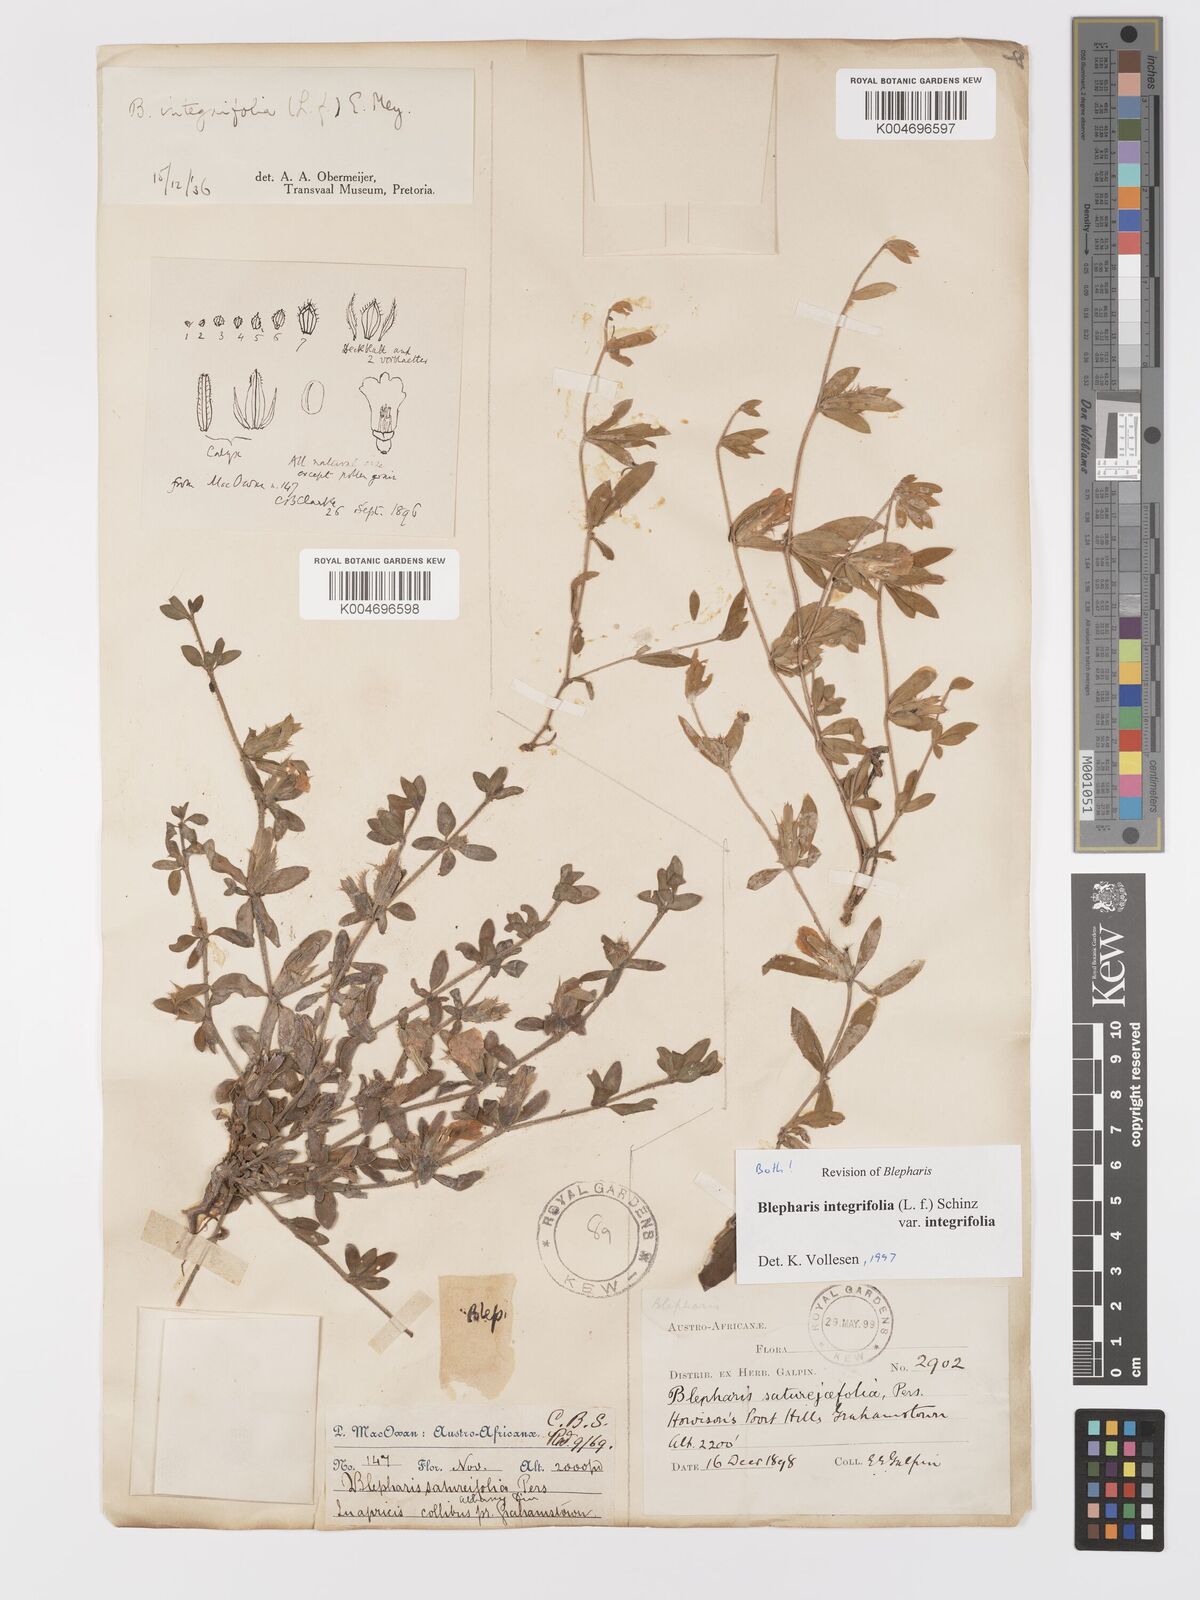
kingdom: Plantae
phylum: Tracheophyta
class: Magnoliopsida
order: Lamiales
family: Acanthaceae
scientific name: Acanthaceae
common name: Acanthaceae
